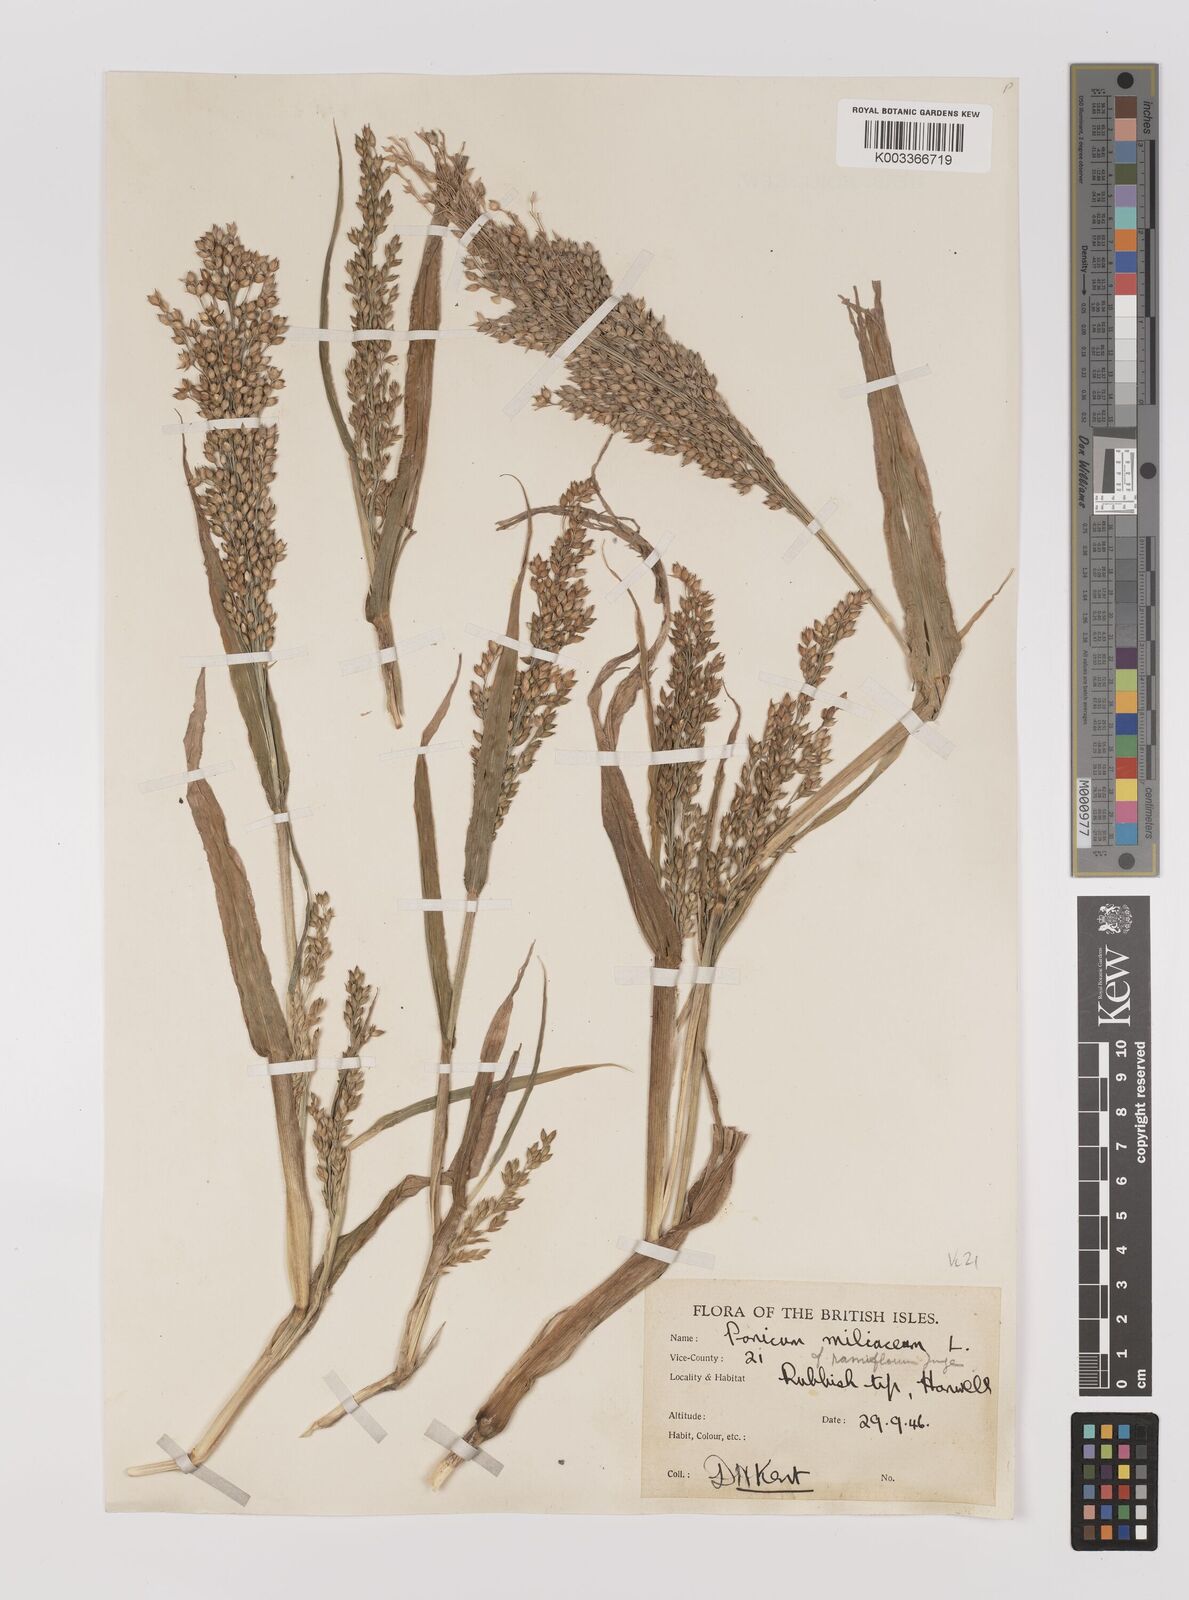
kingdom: Plantae
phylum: Tracheophyta
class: Liliopsida
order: Poales
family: Poaceae
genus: Panicum
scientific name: Panicum miliaceum
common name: Common millet
